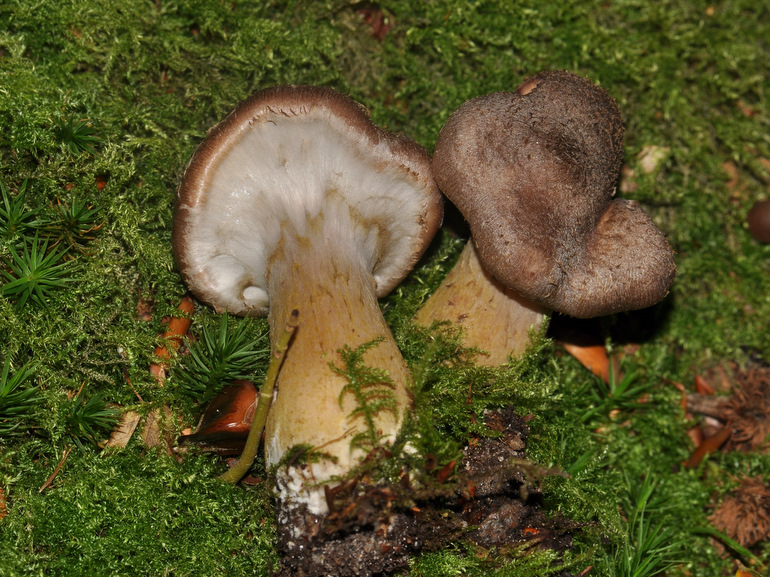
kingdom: Fungi
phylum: Basidiomycota
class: Agaricomycetes
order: Agaricales
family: Physalacriaceae
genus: Armillaria
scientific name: Armillaria lutea
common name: køllestokket honningsvamp
